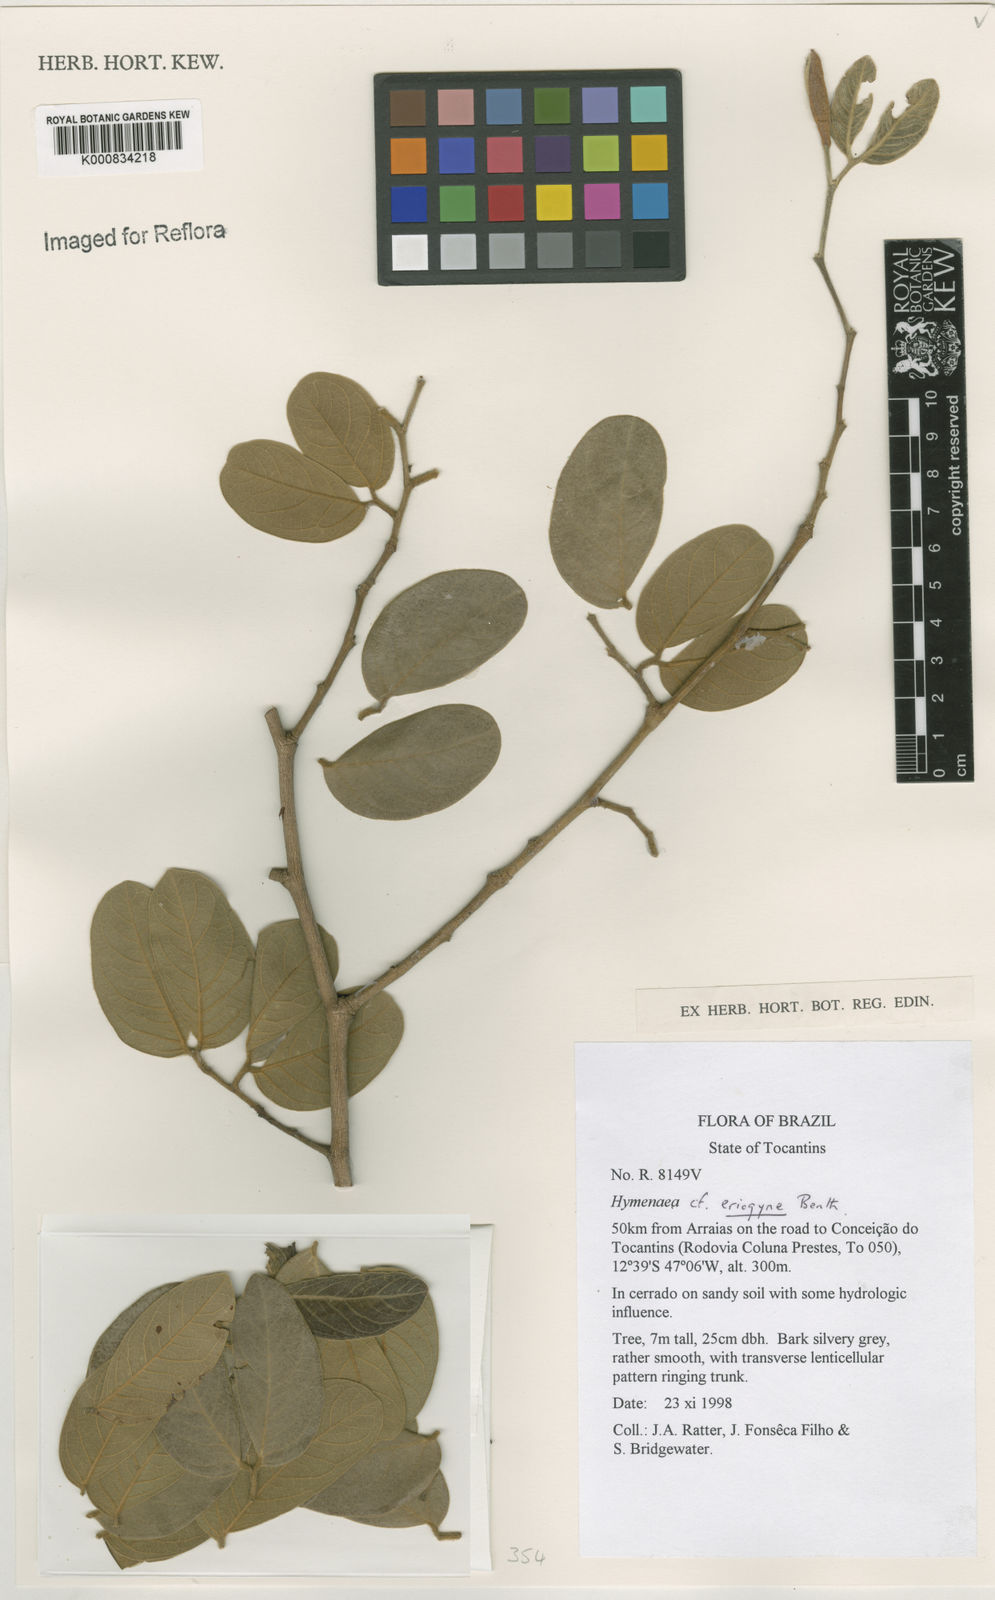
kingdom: Plantae
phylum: Tracheophyta
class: Magnoliopsida
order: Fabales
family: Fabaceae
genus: Hymenaea
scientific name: Hymenaea eriogyne
